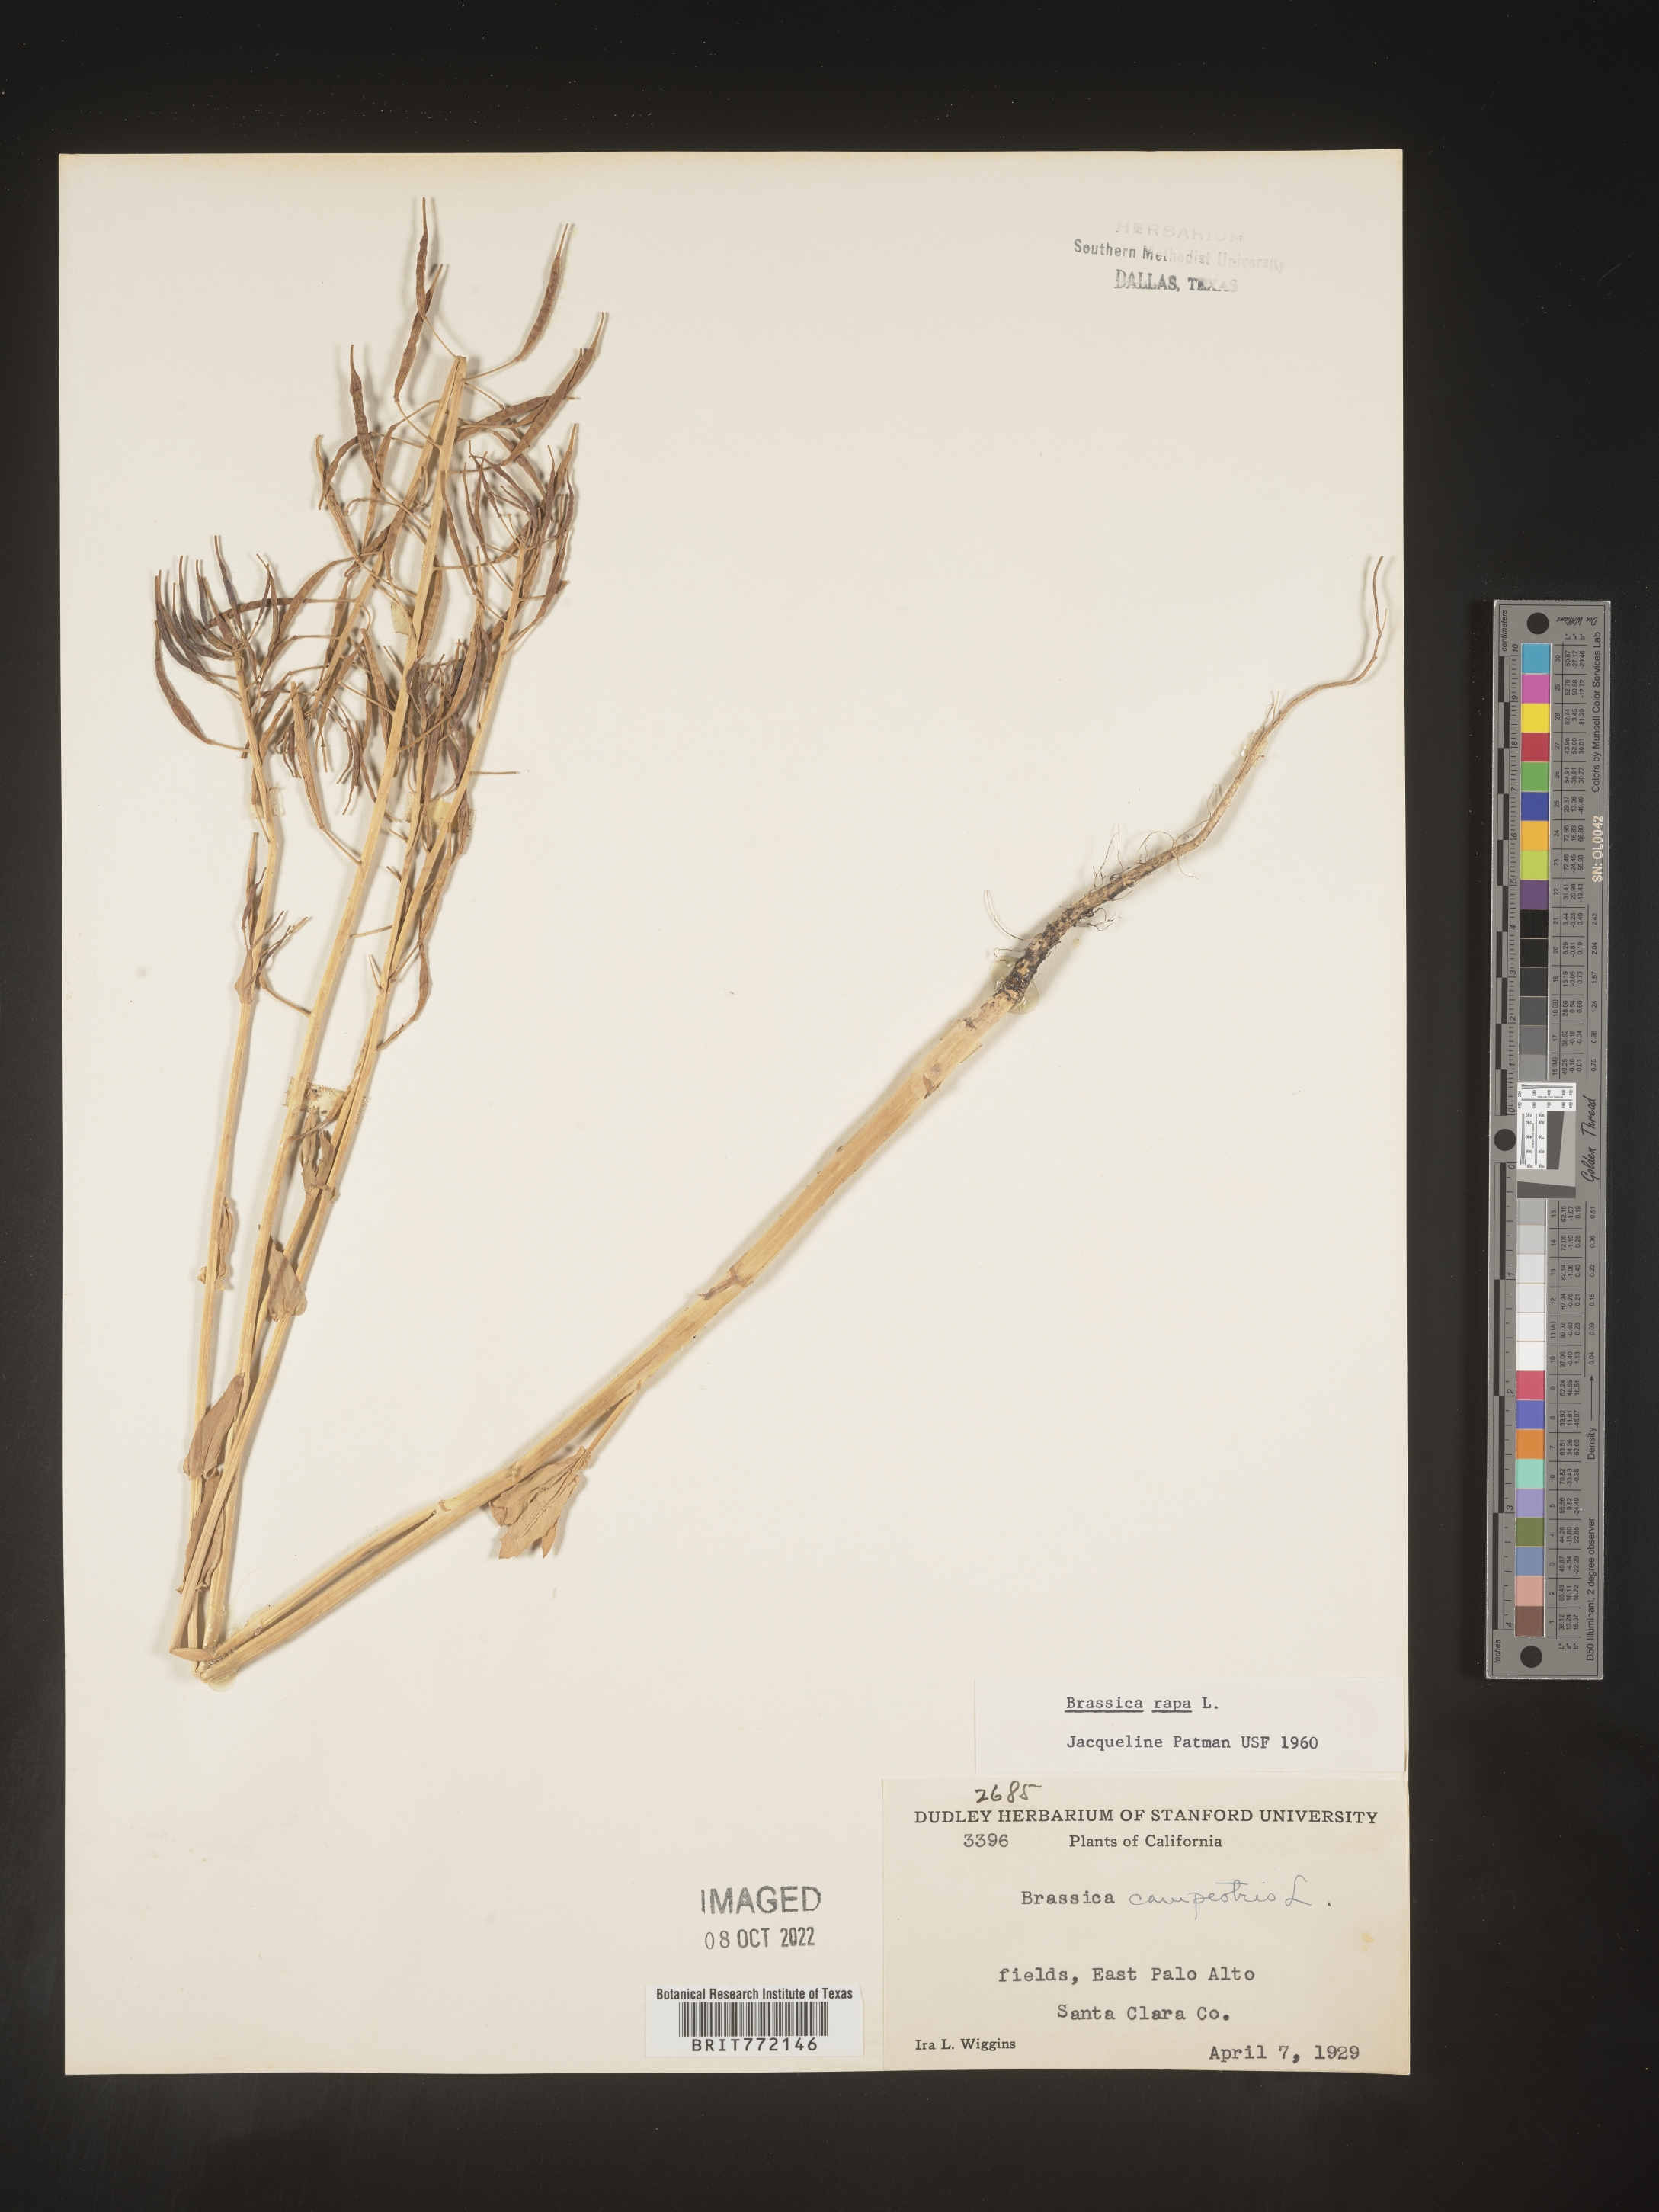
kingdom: Plantae
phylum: Tracheophyta
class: Magnoliopsida
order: Brassicales
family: Brassicaceae
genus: Brassica
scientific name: Brassica rapa
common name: Field mustard
